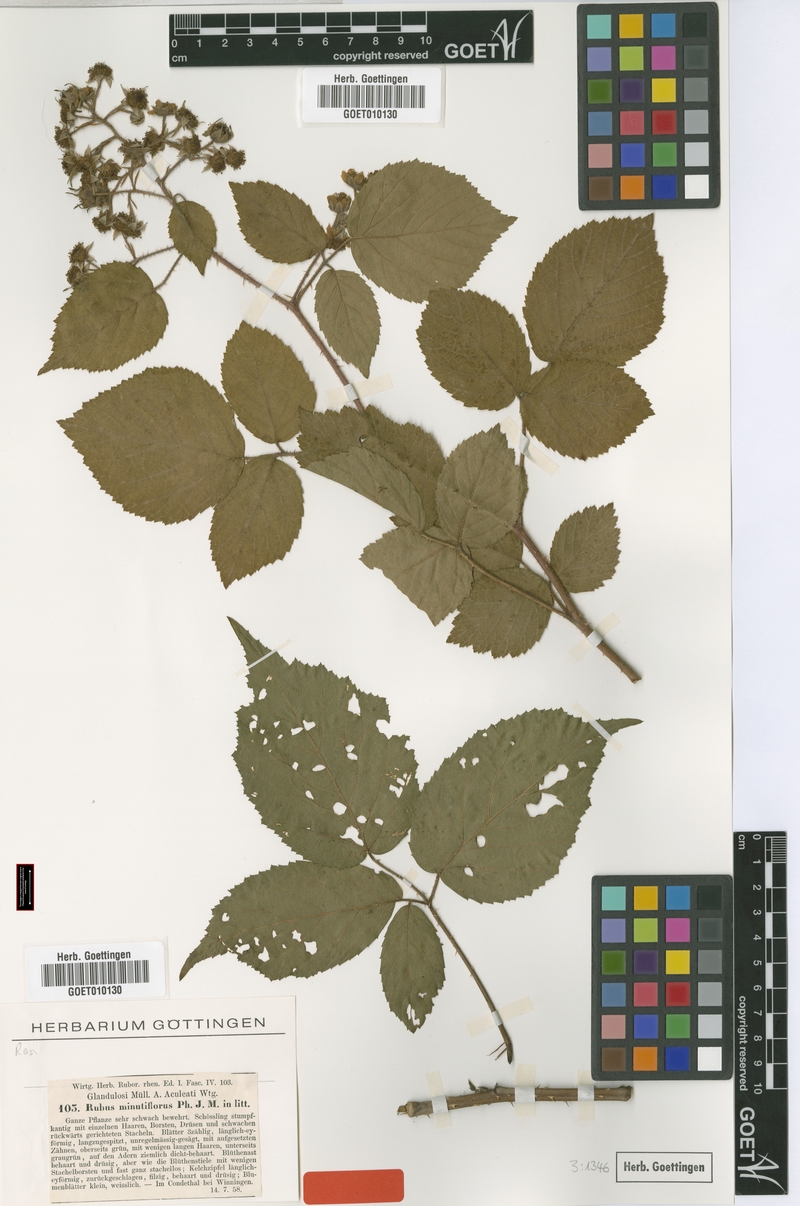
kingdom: Plantae
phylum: Tracheophyta
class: Magnoliopsida
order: Rosales
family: Rosaceae
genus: Rubus
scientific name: Rubus hirtus
